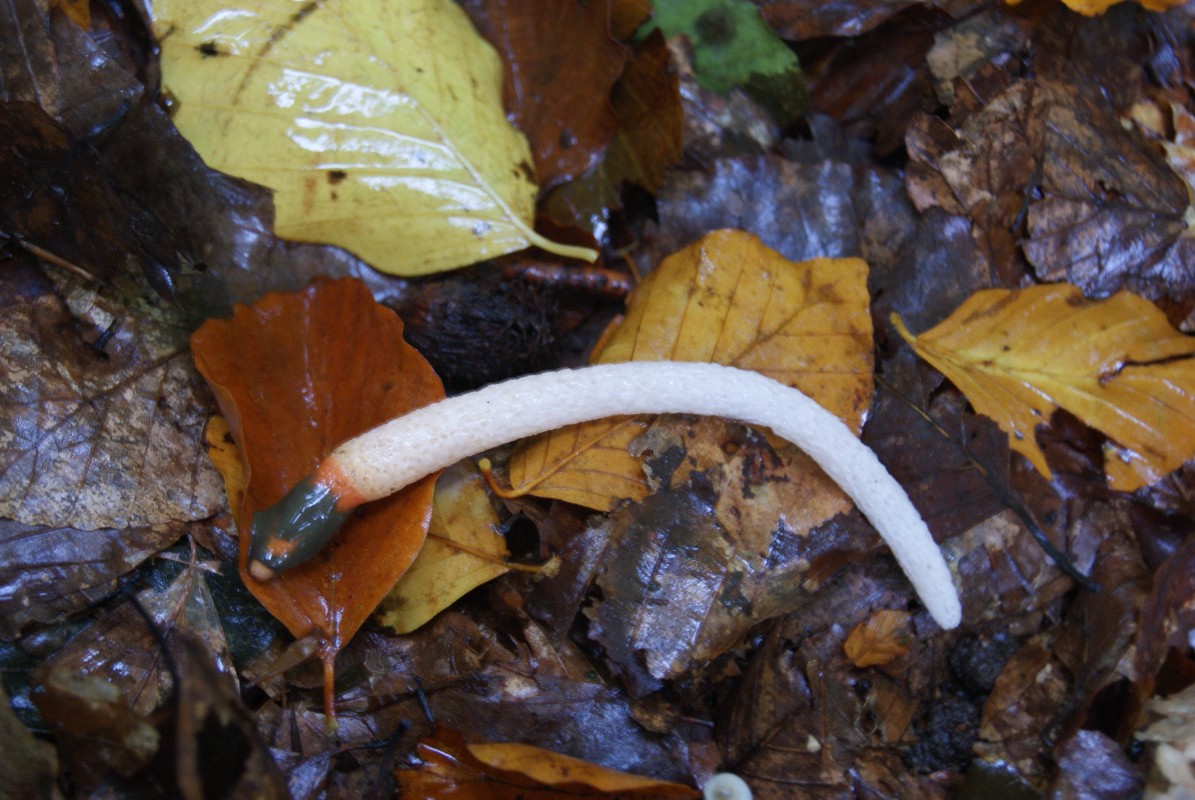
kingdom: Fungi
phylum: Basidiomycota
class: Agaricomycetes
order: Phallales
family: Phallaceae
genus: Mutinus
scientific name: Mutinus caninus
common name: hunde-stinksvamp
